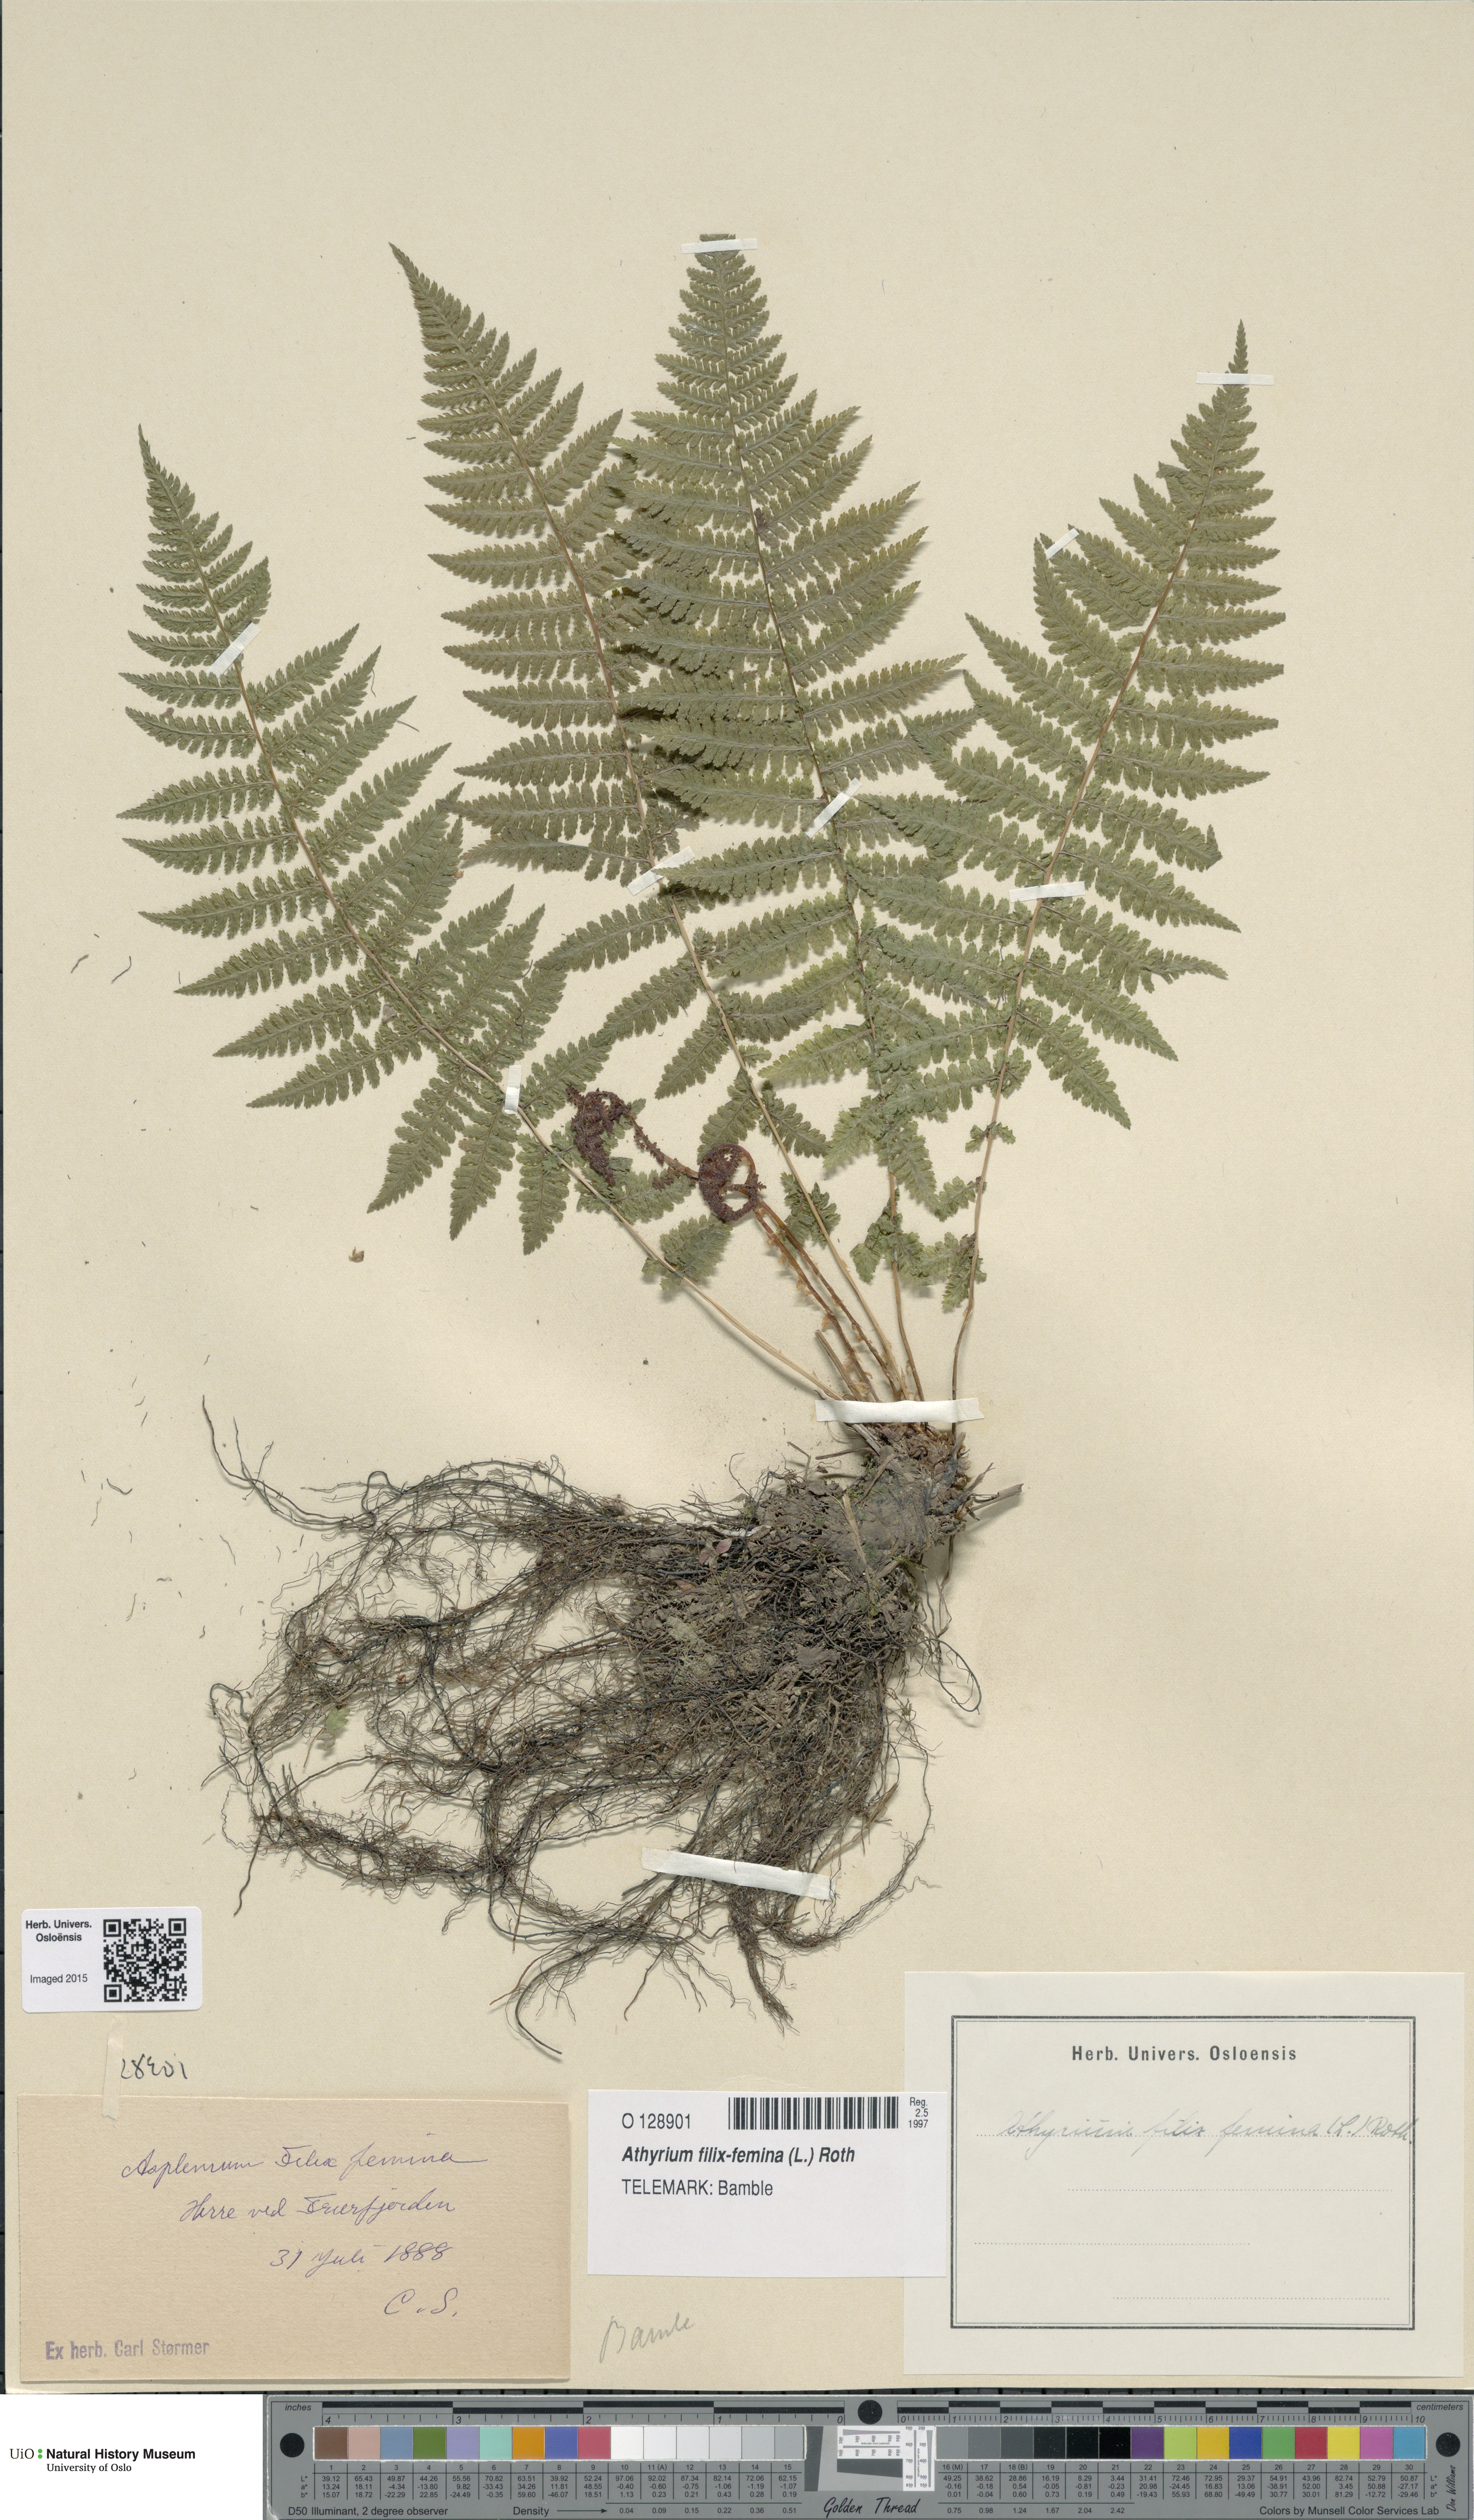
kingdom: Plantae
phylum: Tracheophyta
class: Polypodiopsida
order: Polypodiales
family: Athyriaceae
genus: Athyrium
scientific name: Athyrium filix-femina
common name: Lady fern
